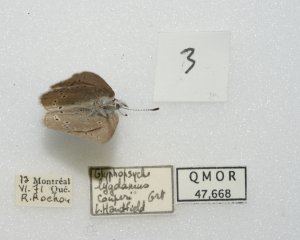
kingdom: Animalia
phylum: Arthropoda
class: Insecta
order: Lepidoptera
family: Lycaenidae
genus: Glaucopsyche
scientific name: Glaucopsyche lygdamus
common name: Silvery Blue
